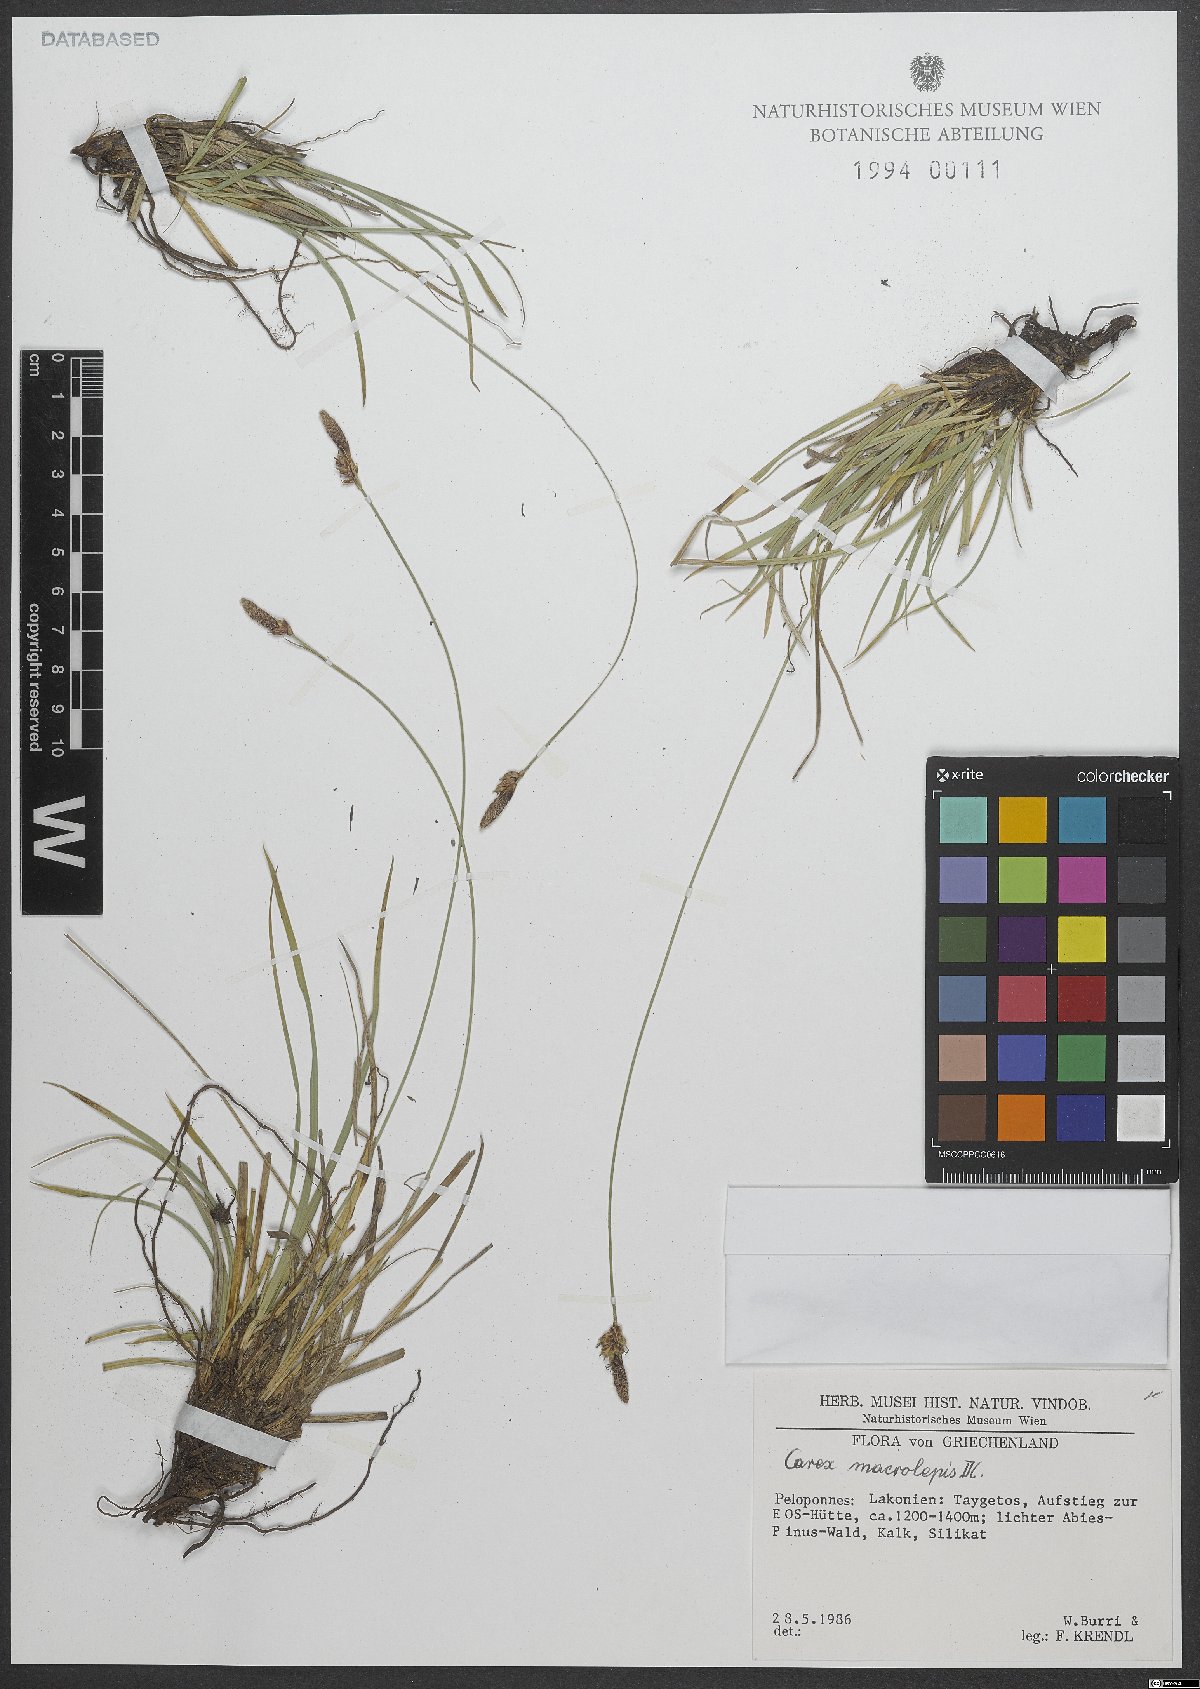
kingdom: Plantae
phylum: Tracheophyta
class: Liliopsida
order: Poales
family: Cyperaceae
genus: Carex
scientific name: Carex macrolepis
